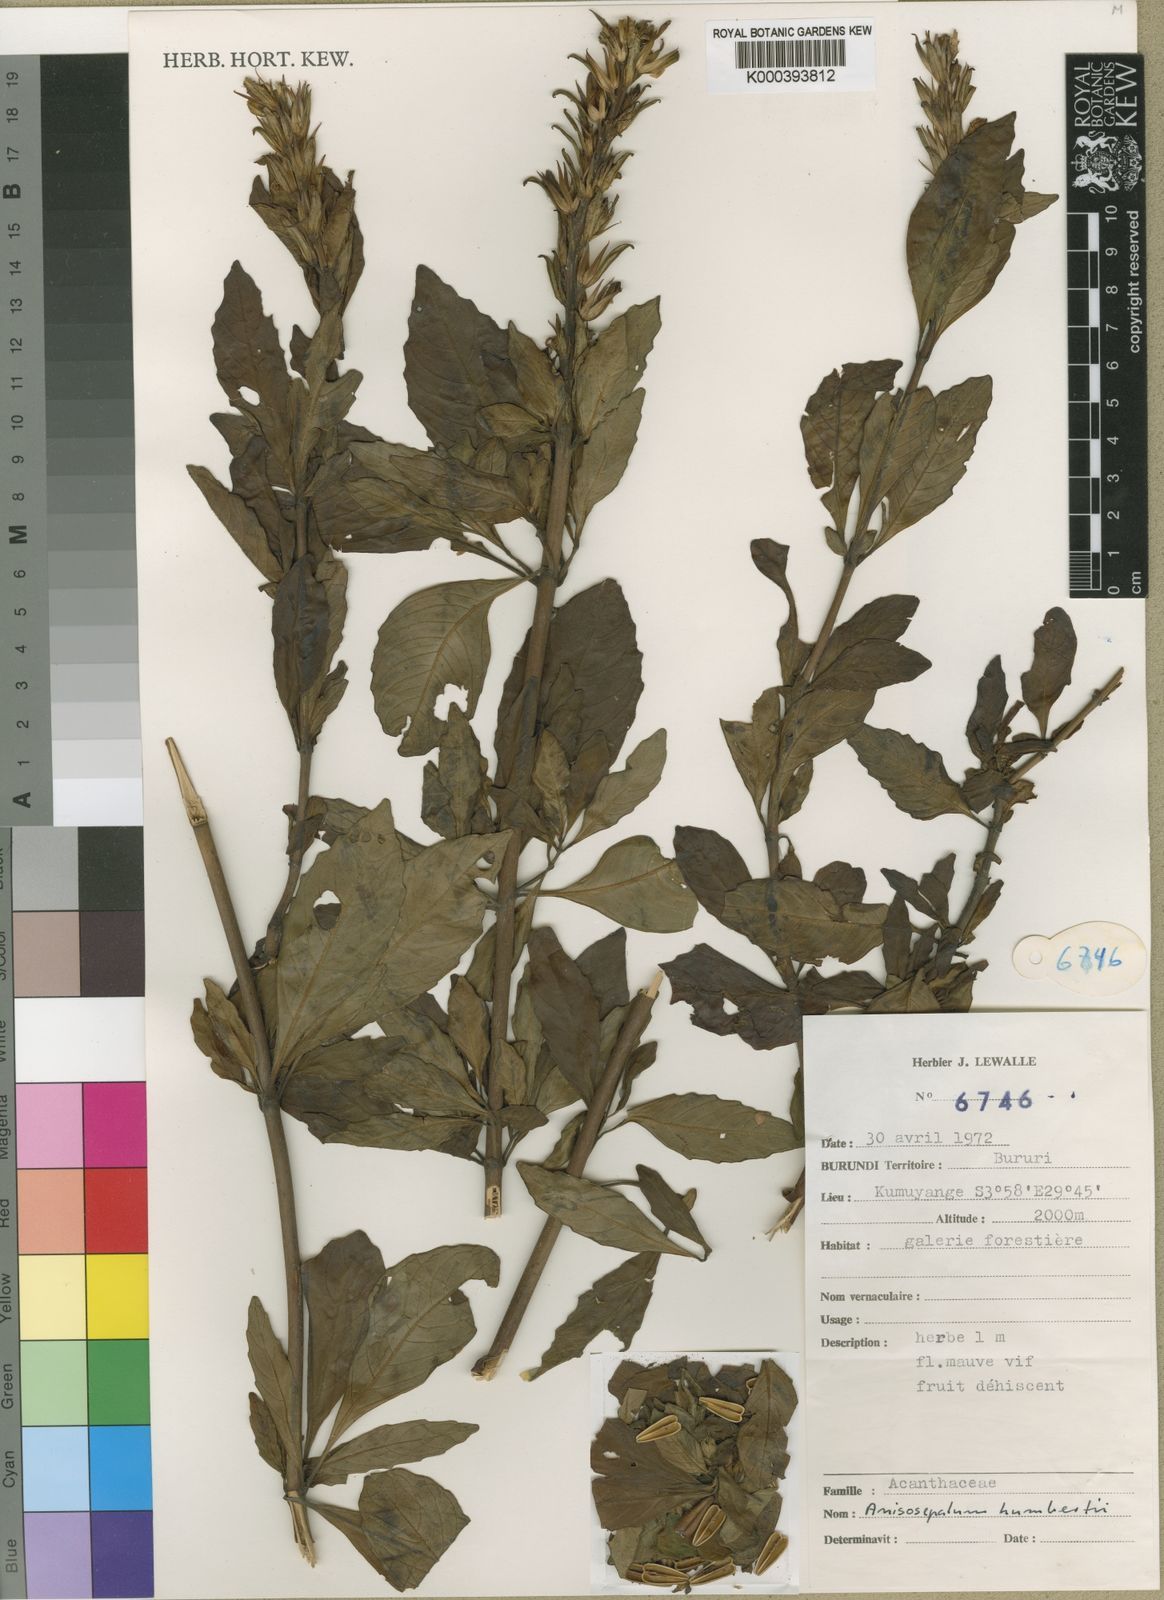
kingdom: Plantae
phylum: Tracheophyta
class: Magnoliopsida
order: Lamiales
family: Acanthaceae
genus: Anisosepalum
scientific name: Anisosepalum lewallei
